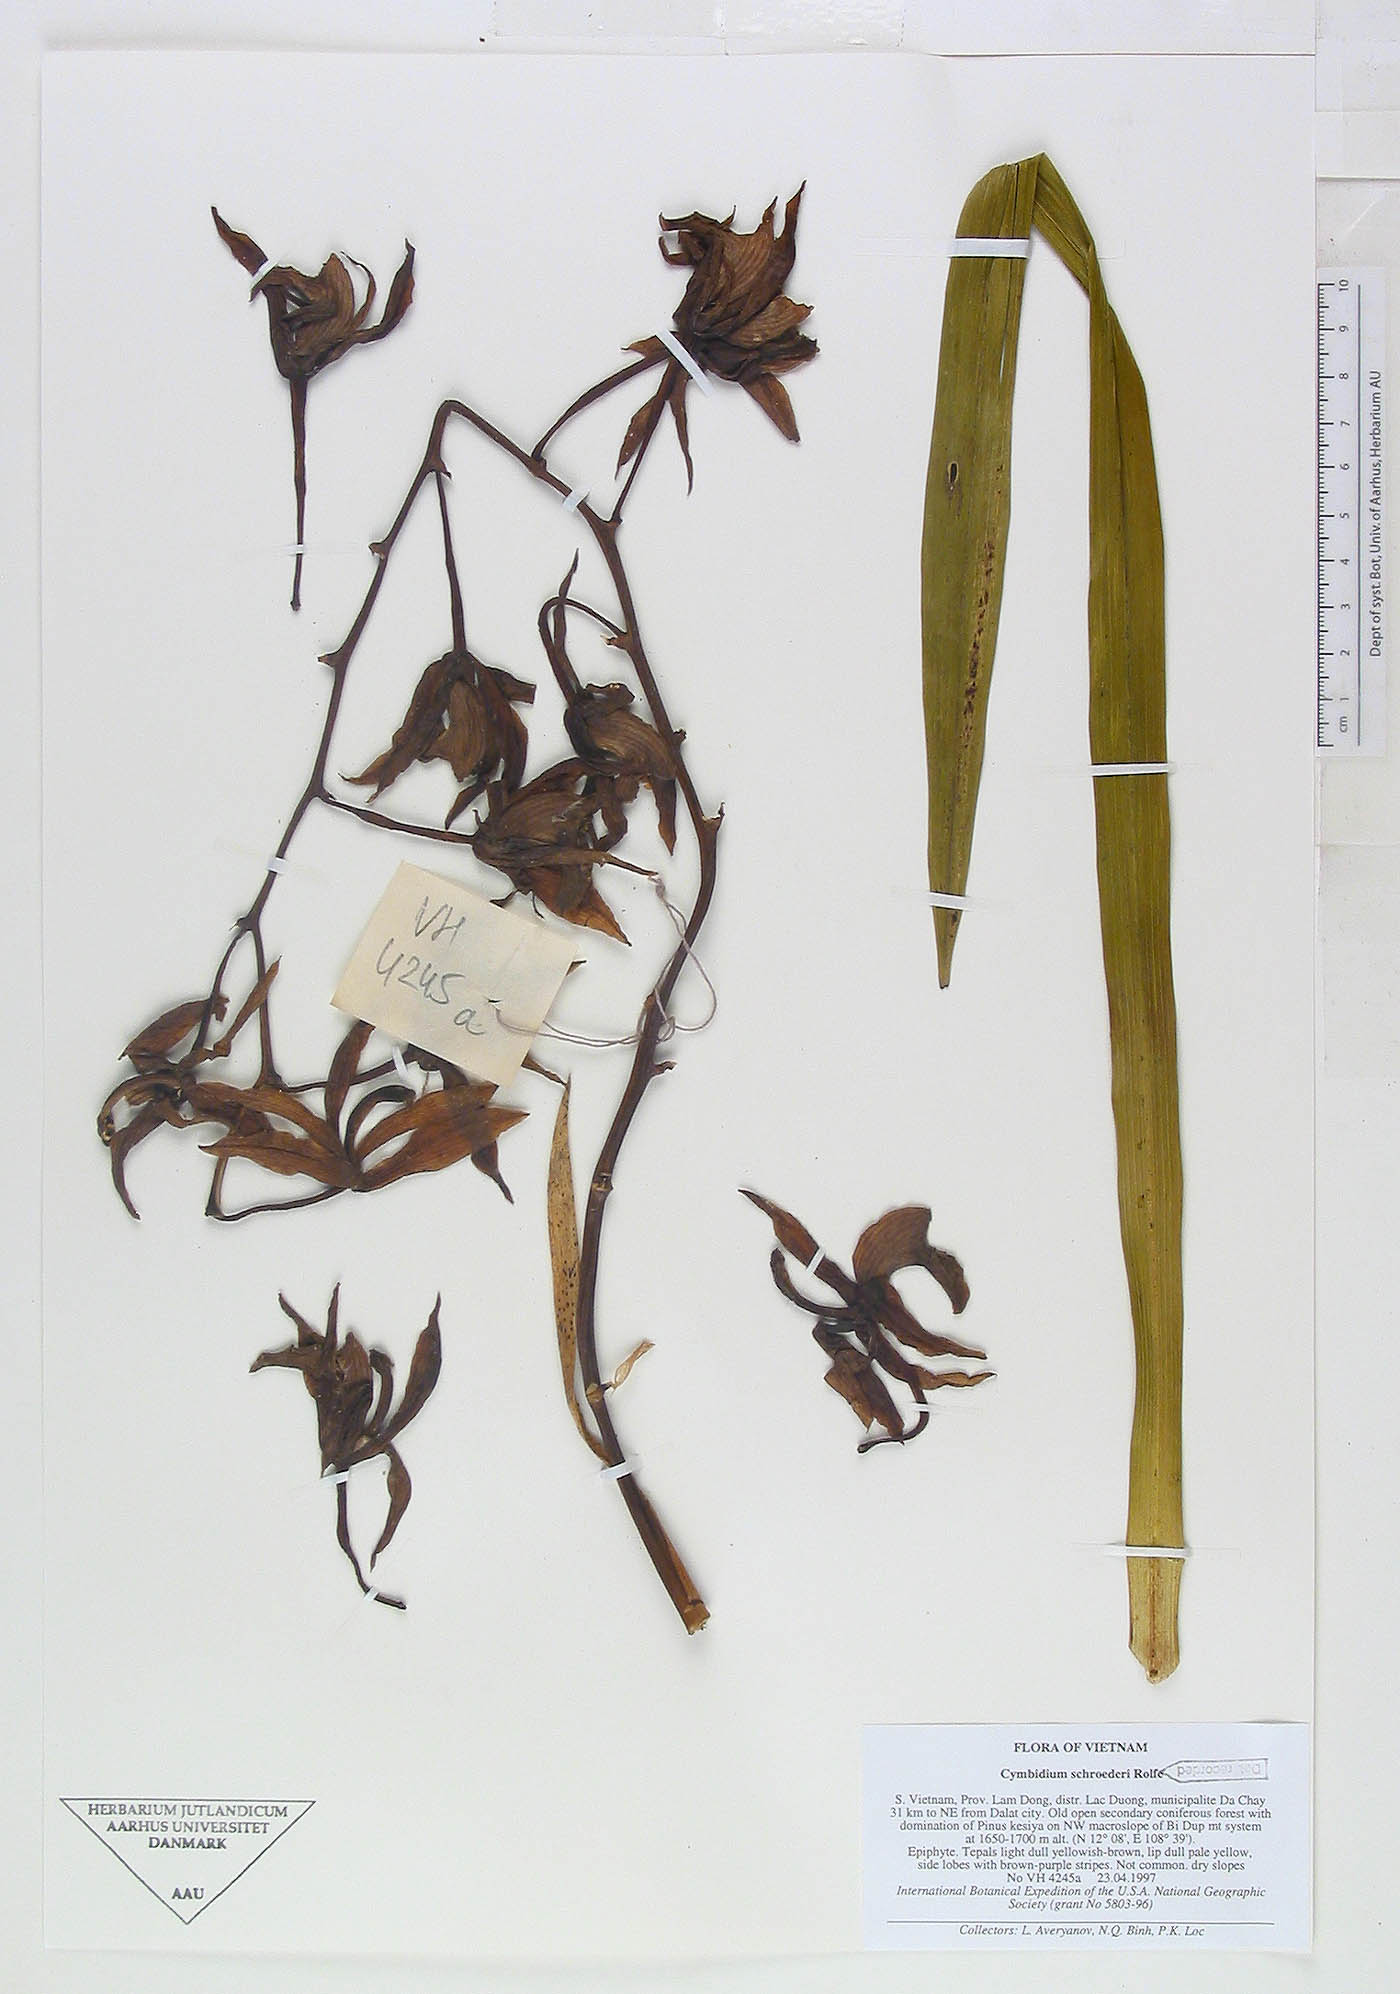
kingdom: Plantae
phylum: Tracheophyta
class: Liliopsida
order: Asparagales
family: Orchidaceae
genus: Cymbidium
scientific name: Cymbidium schroederi
